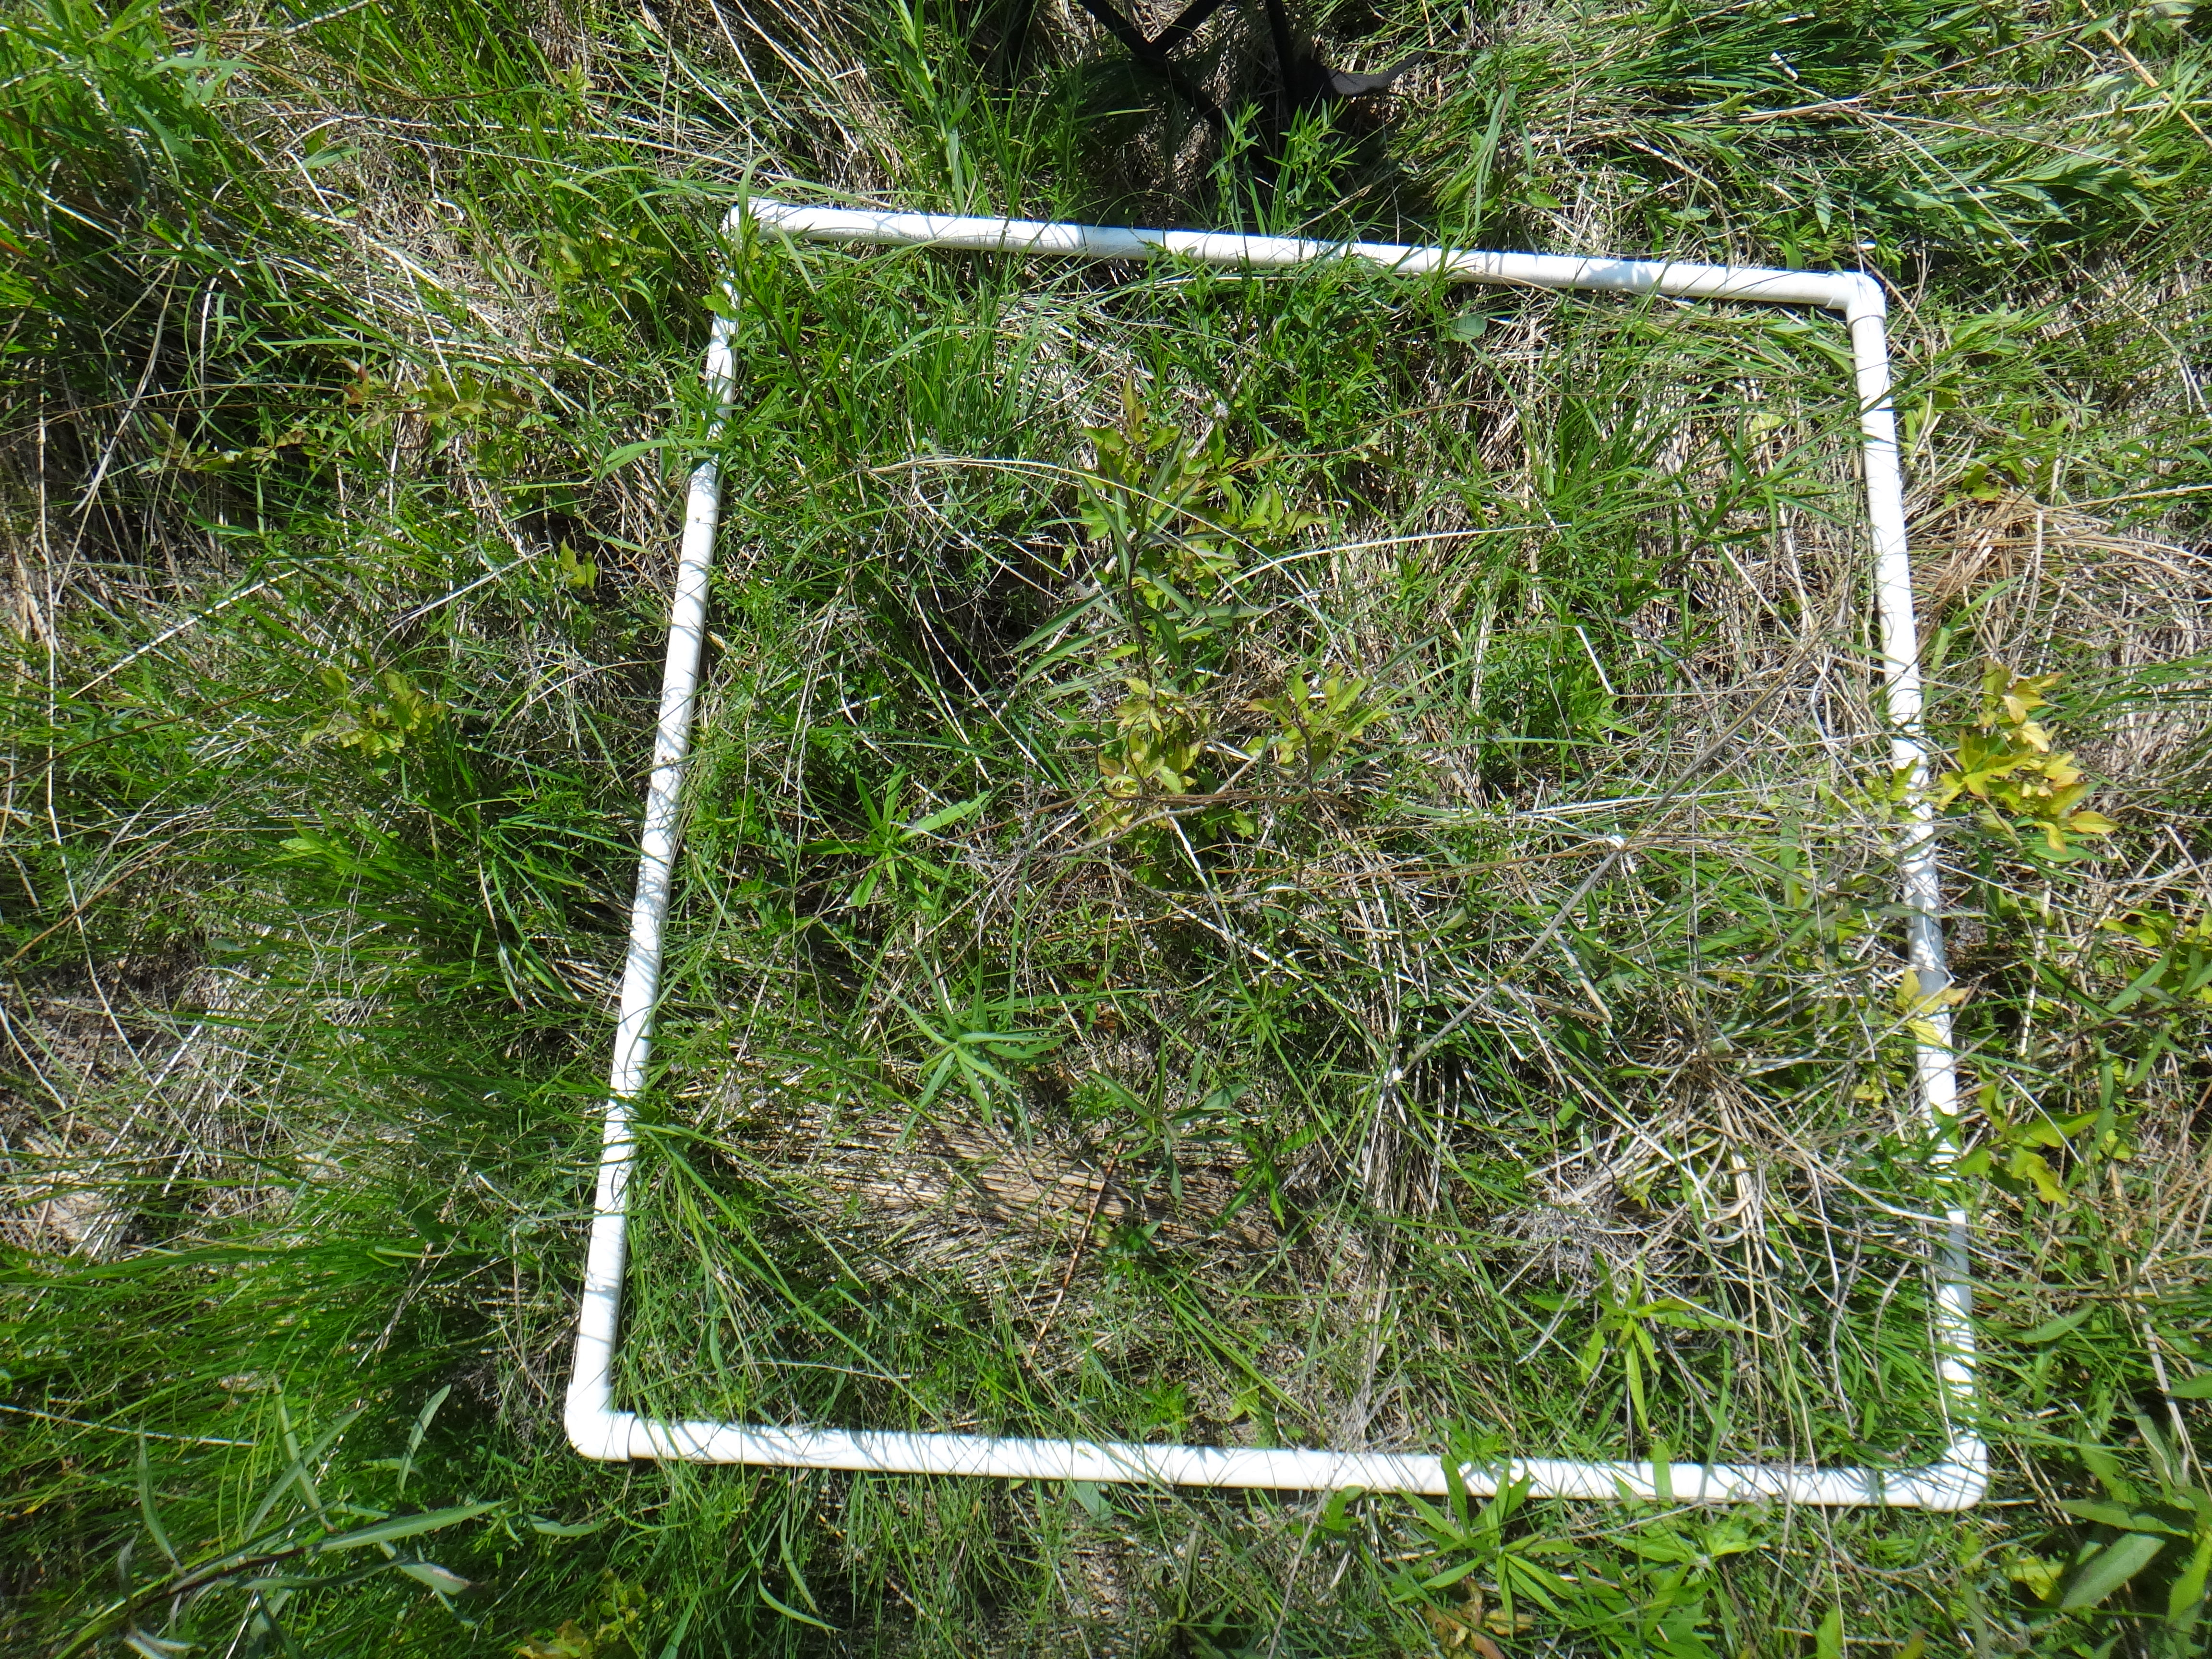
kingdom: Plantae
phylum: Tracheophyta
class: Magnoliopsida
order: Cornales
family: Cornaceae
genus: Cornus
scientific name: Cornus foemina
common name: Swamp dogwood
